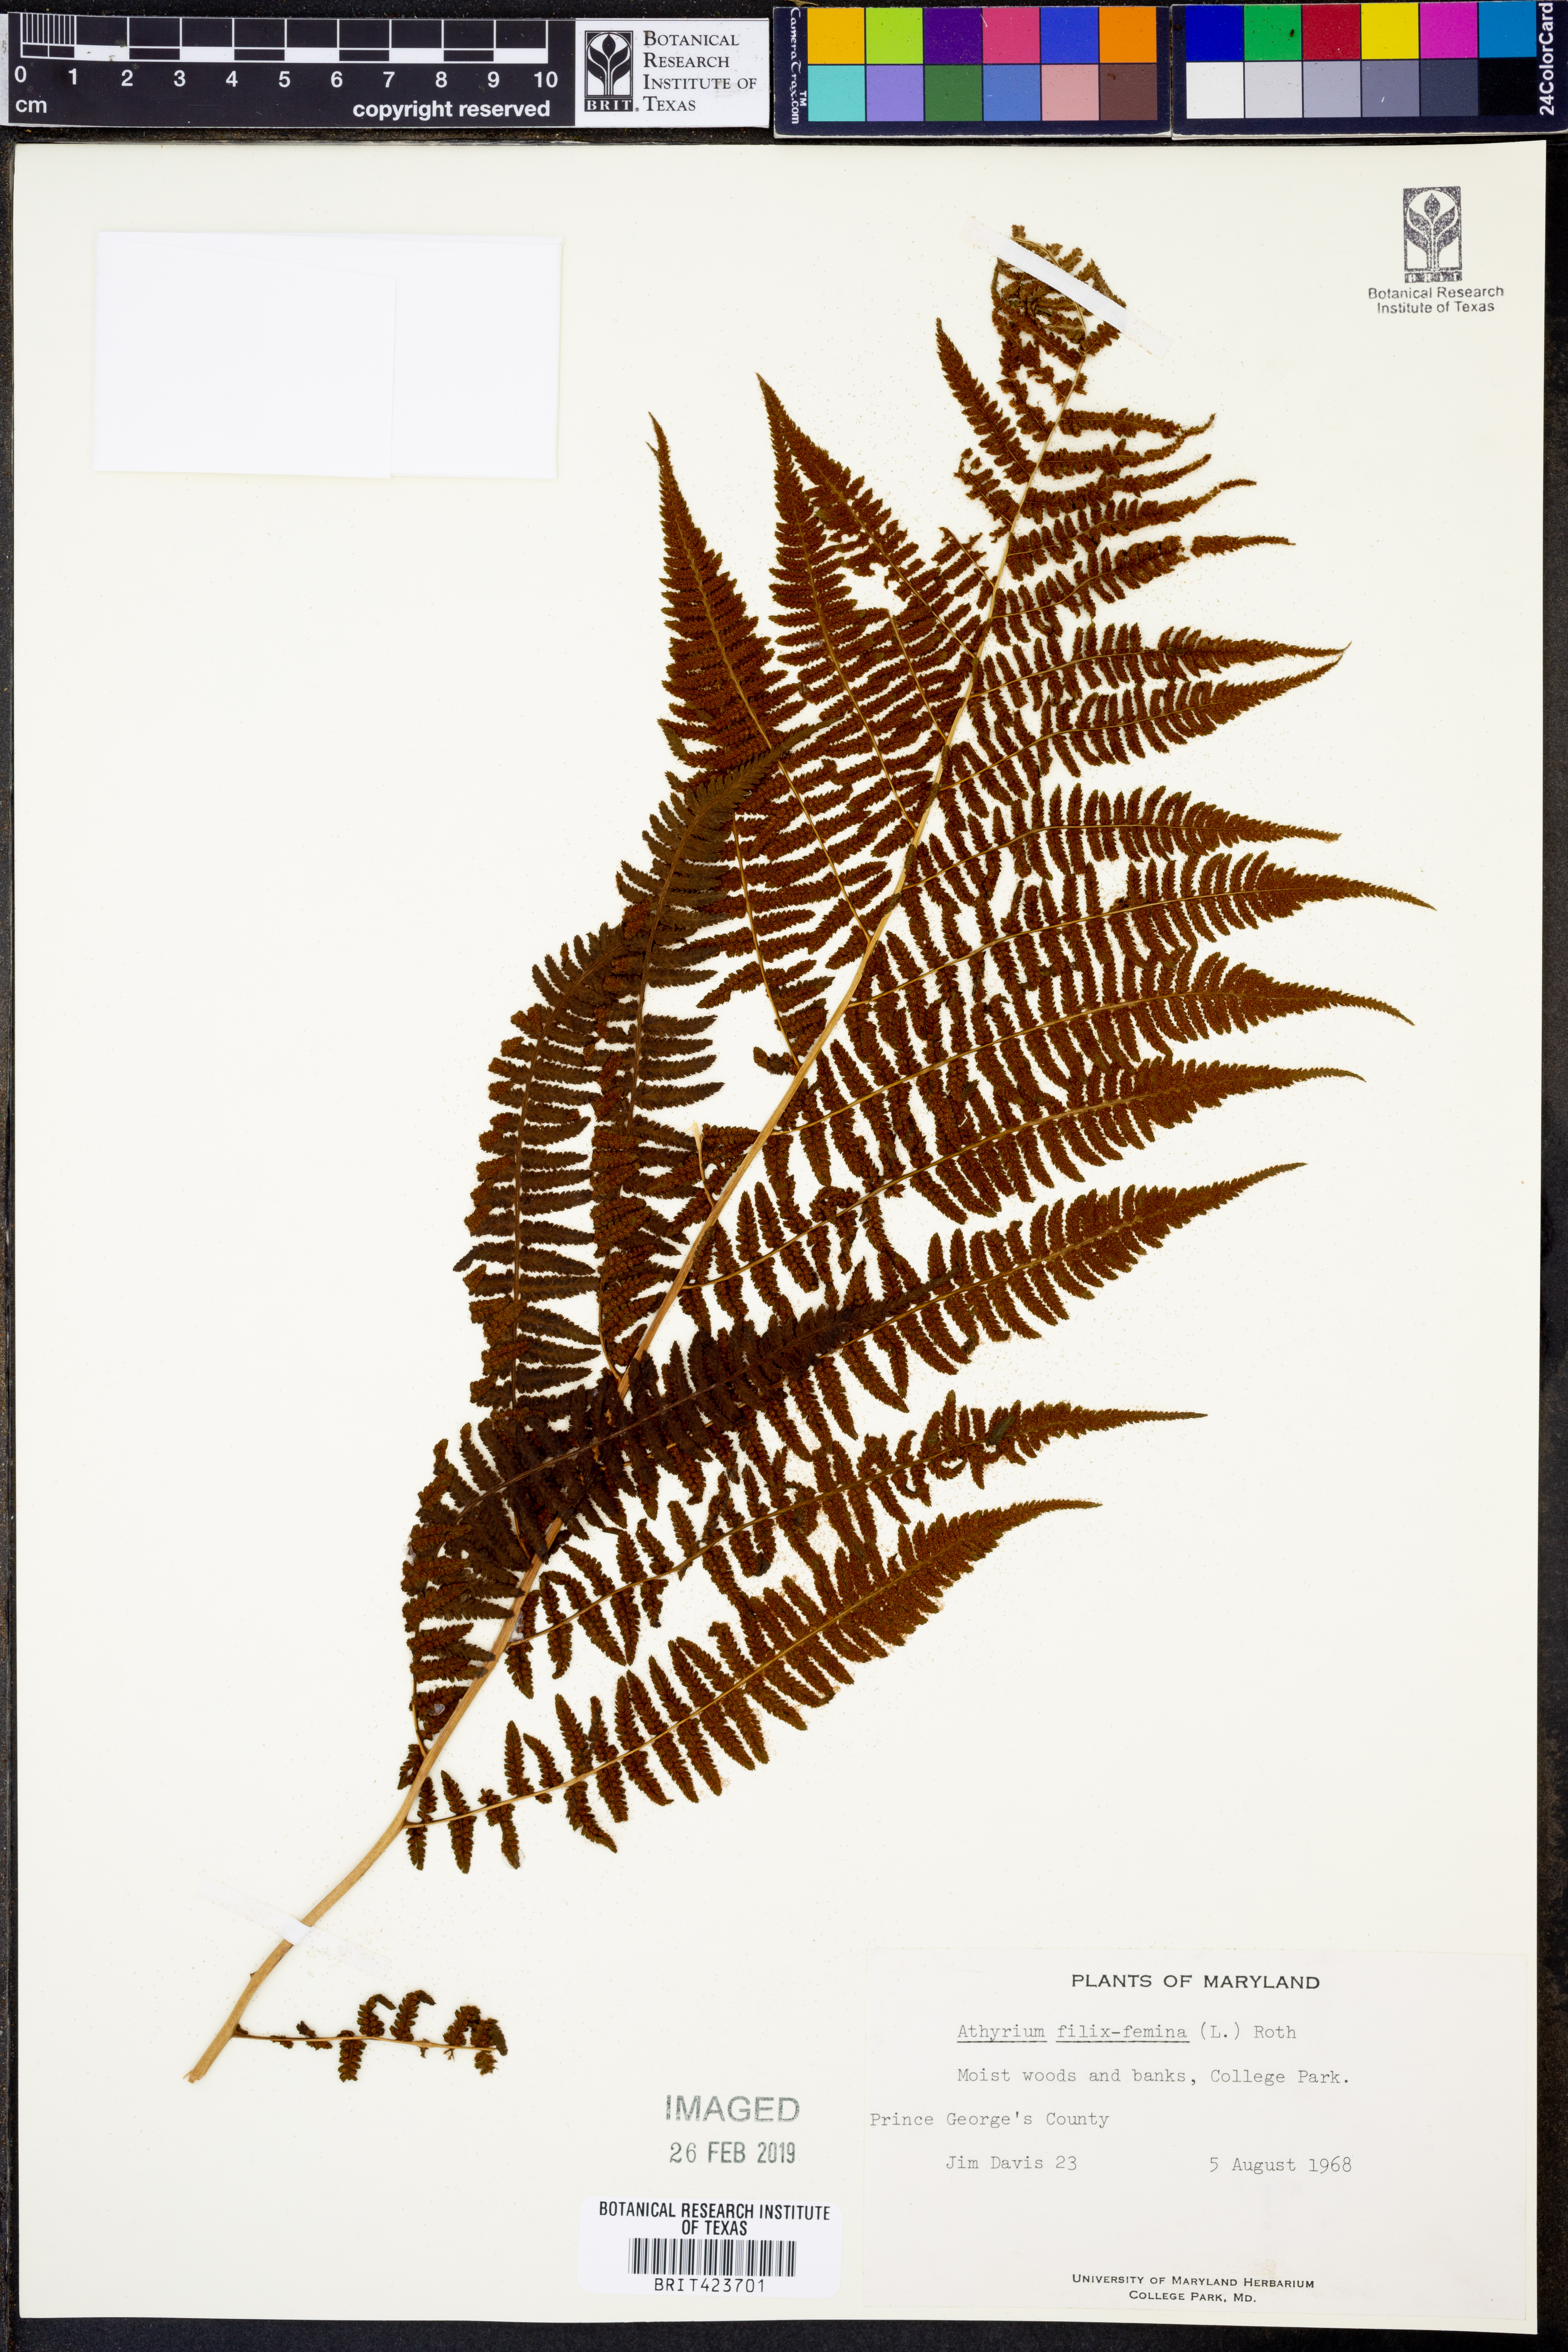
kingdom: Plantae
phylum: Tracheophyta
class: Polypodiopsida
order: Polypodiales
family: Athyriaceae
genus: Athyrium
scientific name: Athyrium filix-femina
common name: Lady fern
